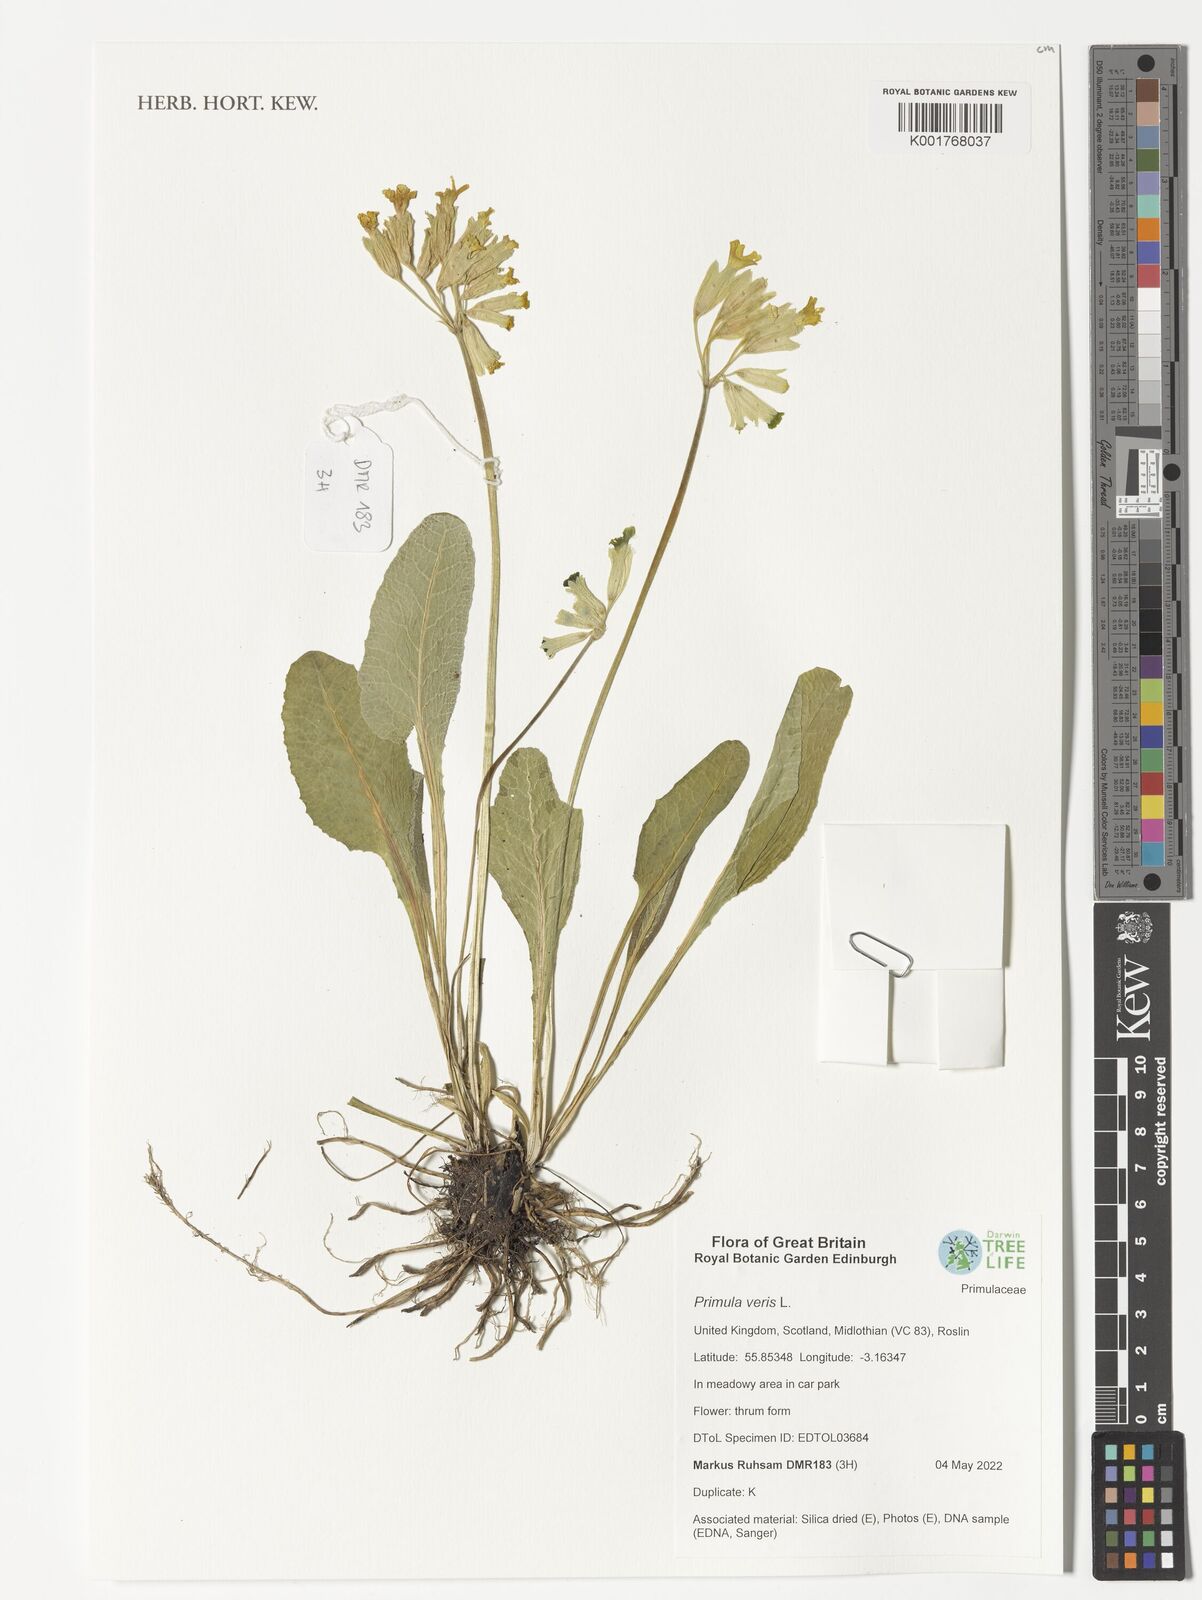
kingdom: Plantae
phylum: Tracheophyta
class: Magnoliopsida
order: Ericales
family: Primulaceae
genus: Primula
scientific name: Primula veris
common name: Cowslip
